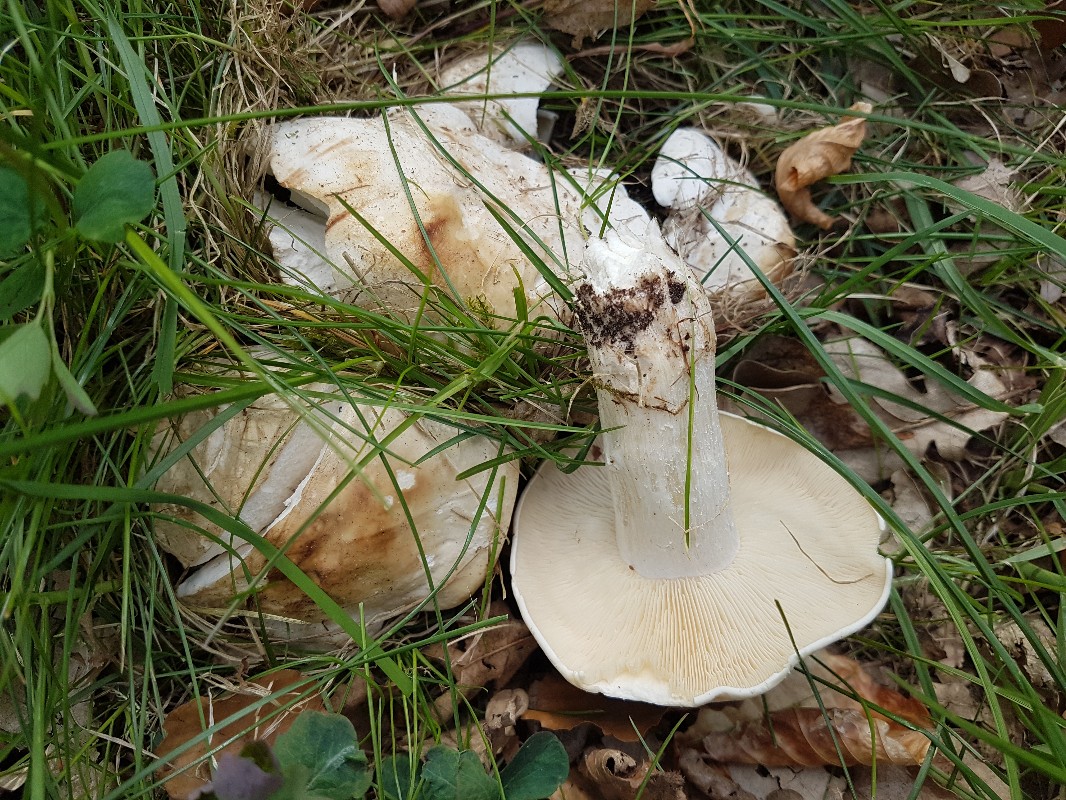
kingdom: Fungi
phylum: Basidiomycota
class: Agaricomycetes
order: Agaricales
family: Lyophyllaceae
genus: Calocybe
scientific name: Calocybe gambosa
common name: vårmusseron
